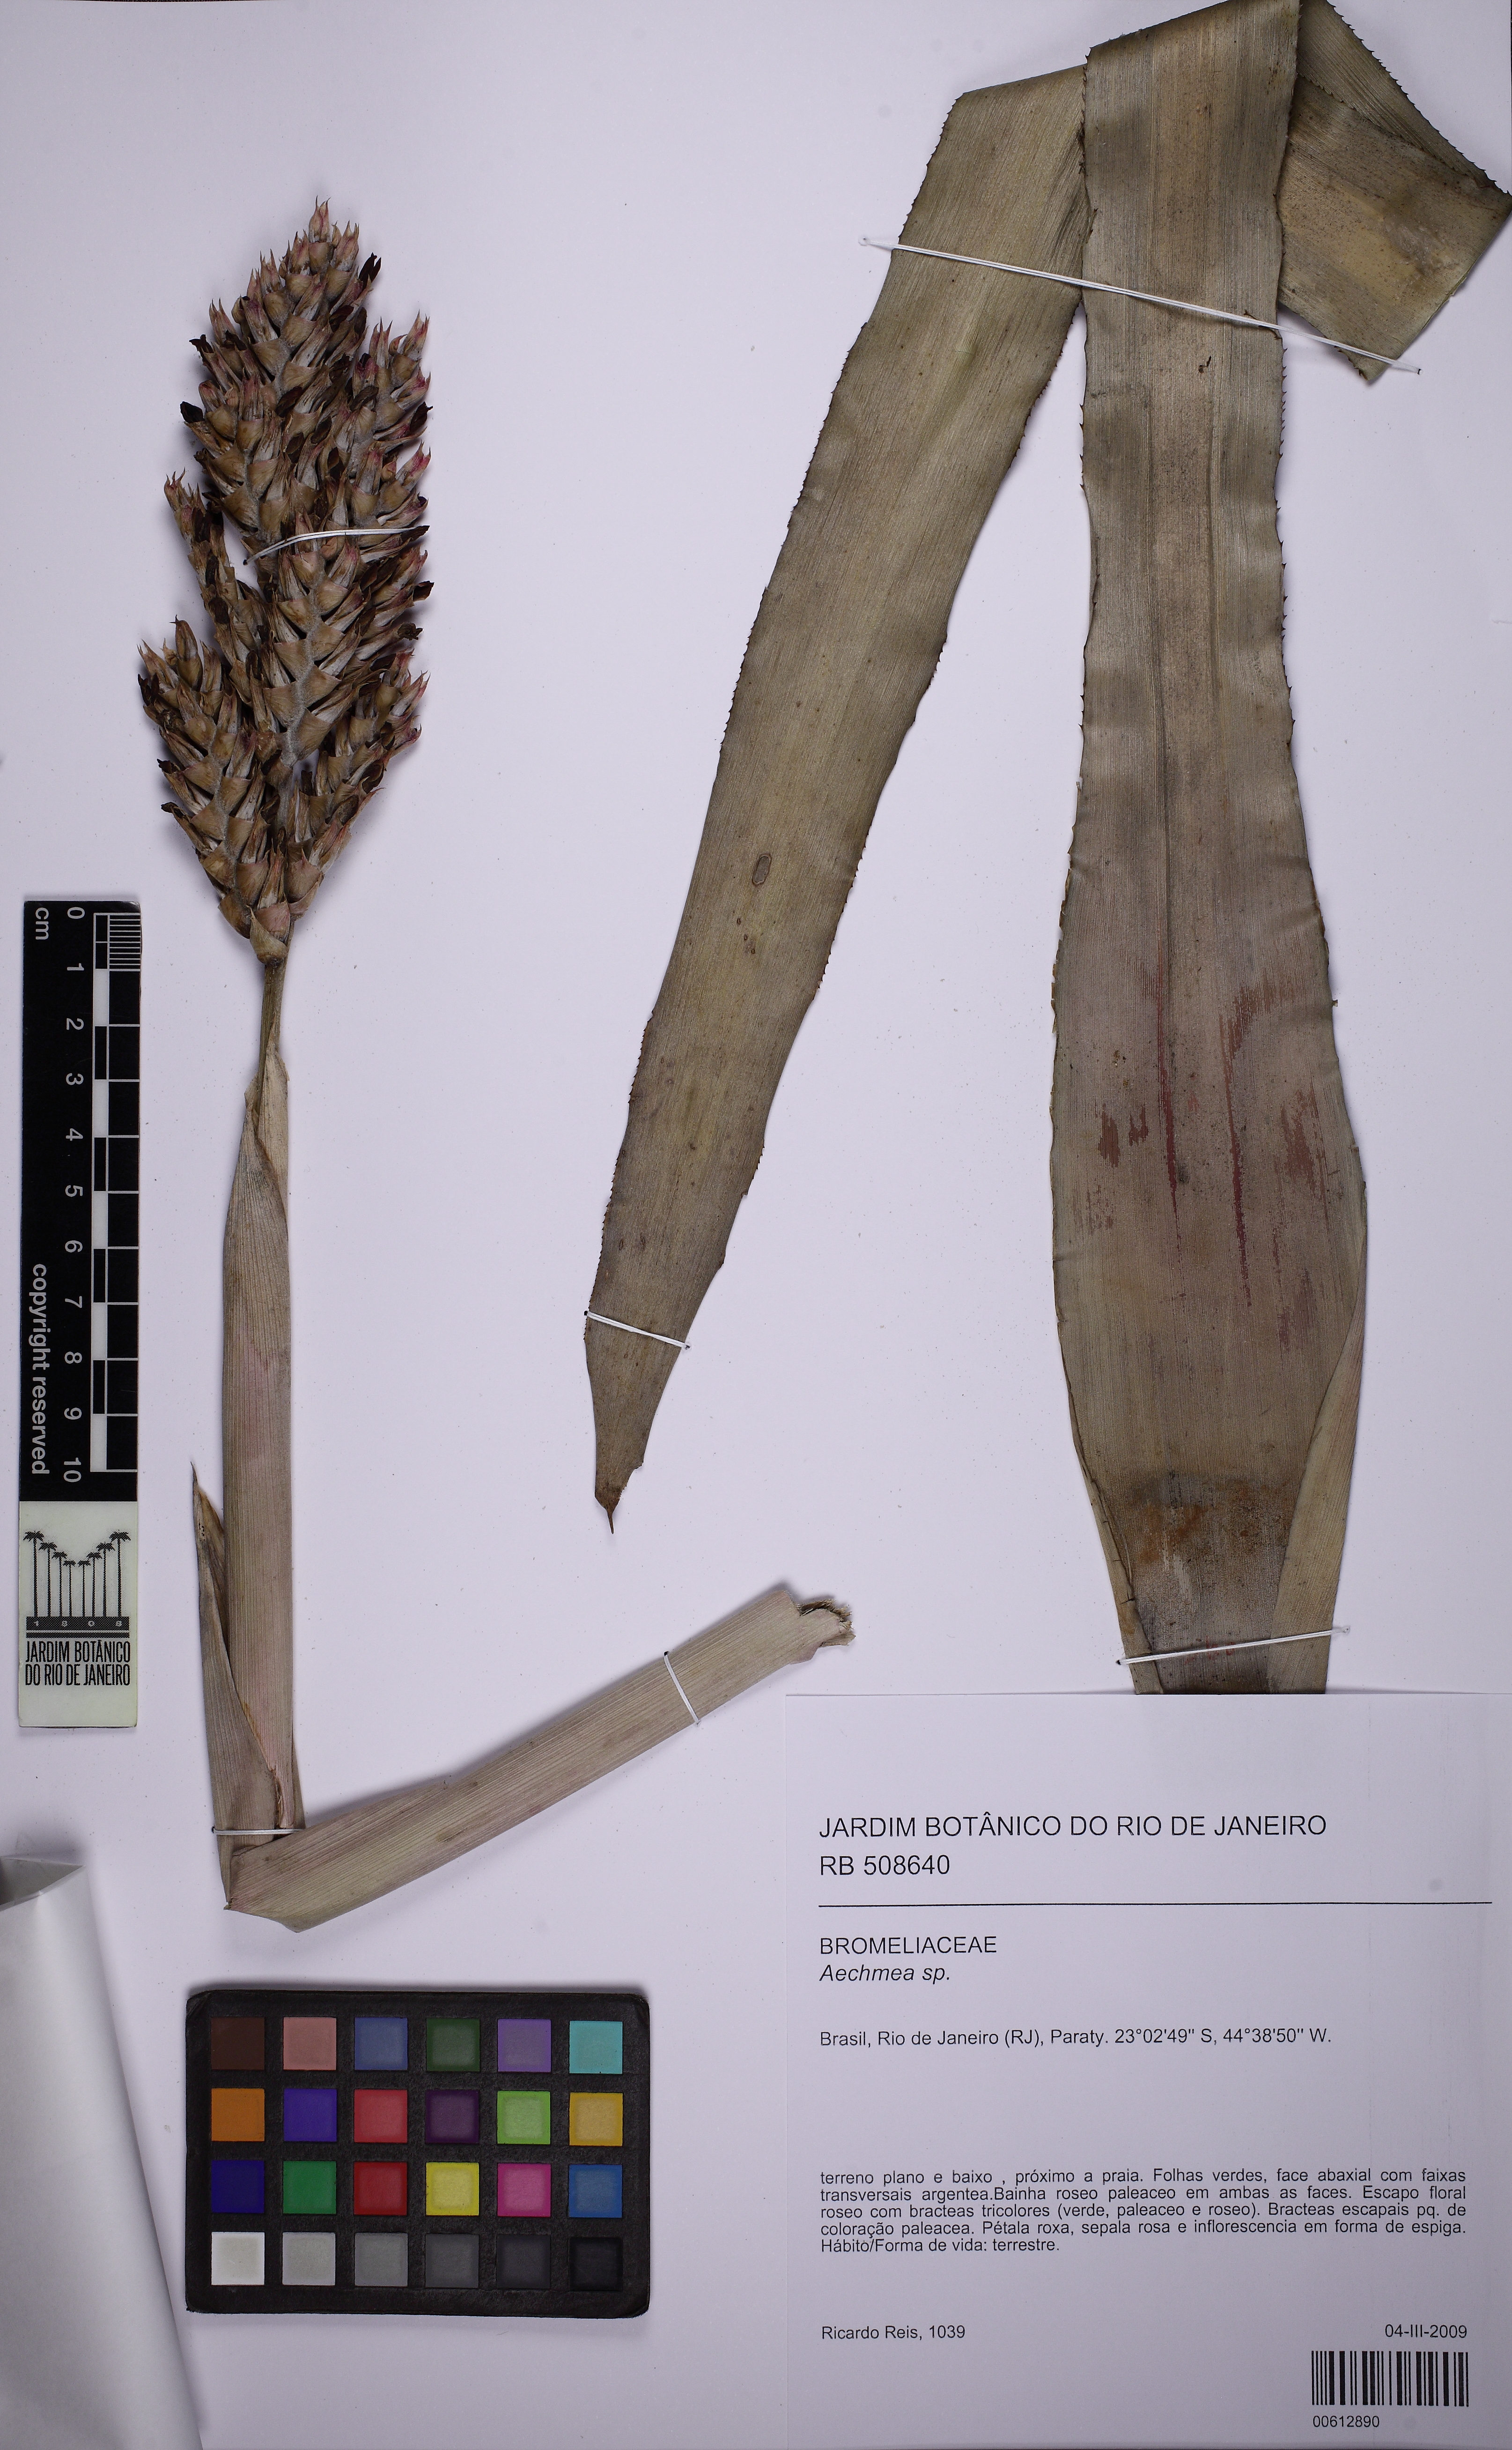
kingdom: Plantae
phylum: Tracheophyta
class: Liliopsida
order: Poales
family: Bromeliaceae
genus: Aechmea
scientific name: Aechmea
